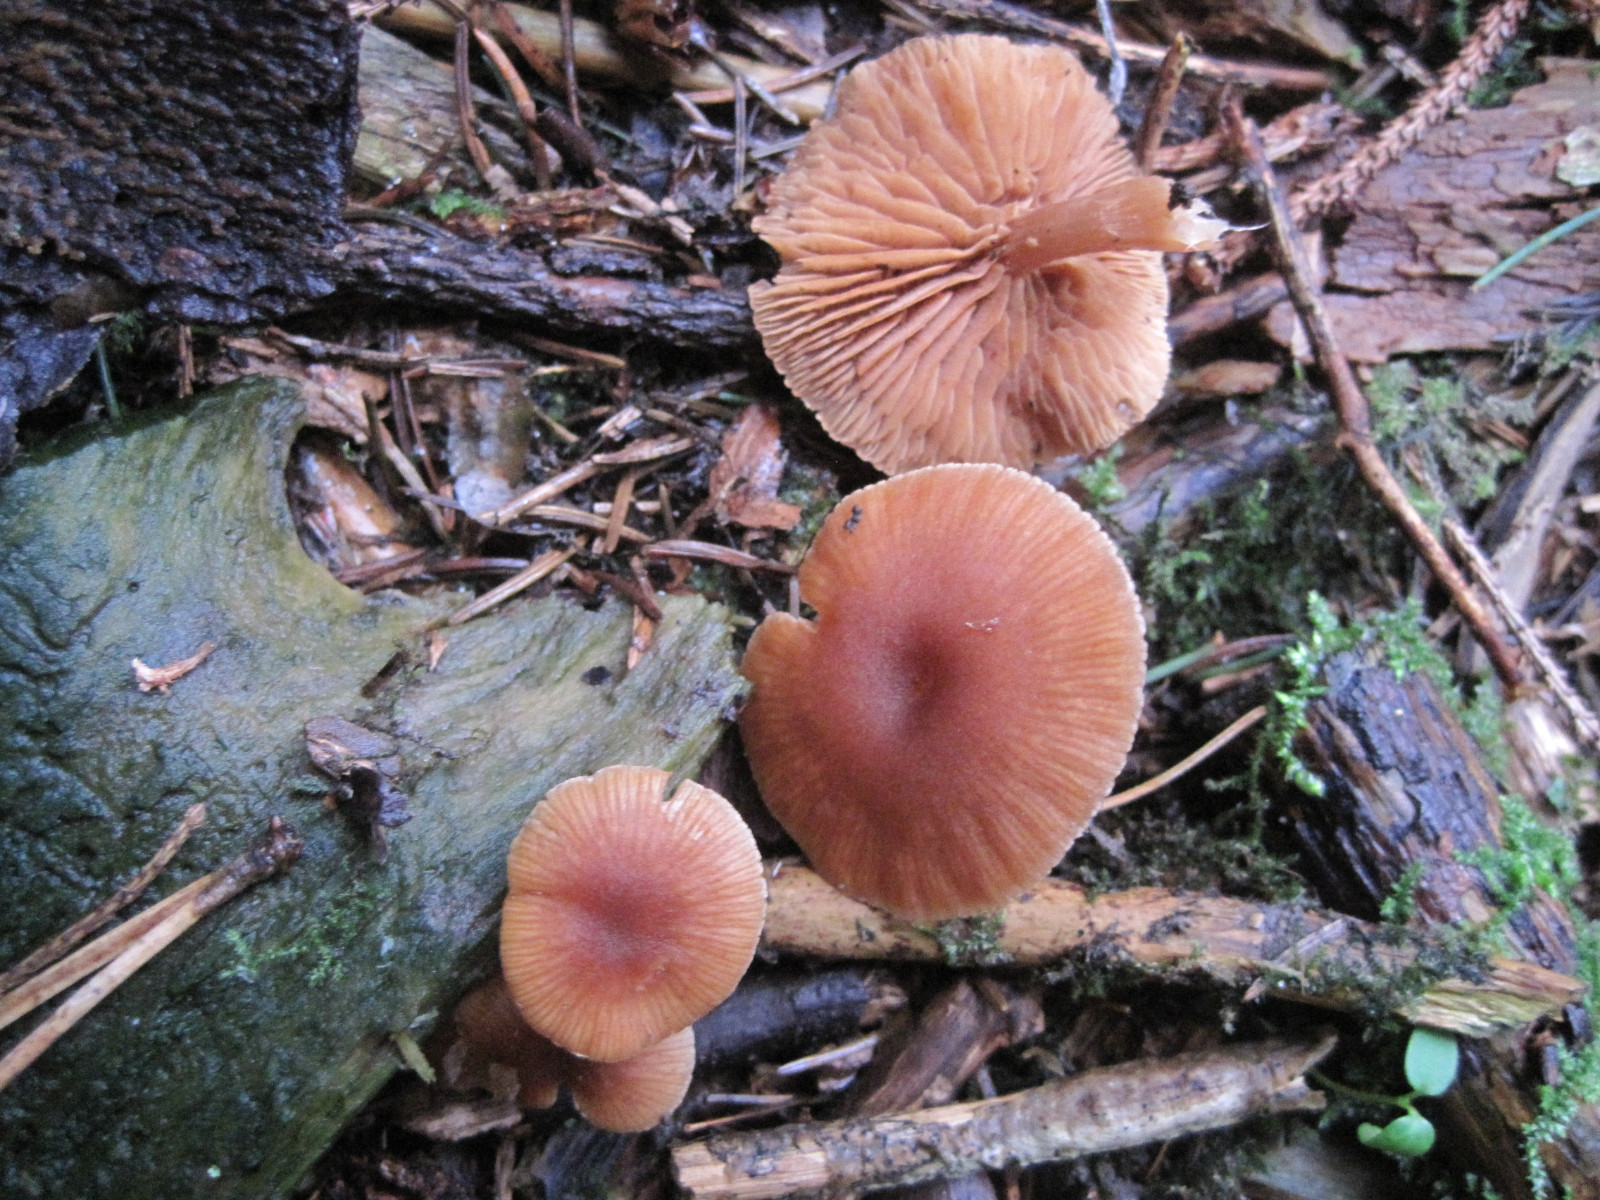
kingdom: Fungi
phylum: Basidiomycota
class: Agaricomycetes
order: Agaricales
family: Tubariaceae
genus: Tubaria
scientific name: Tubaria furfuracea
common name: kliddet fnughat
